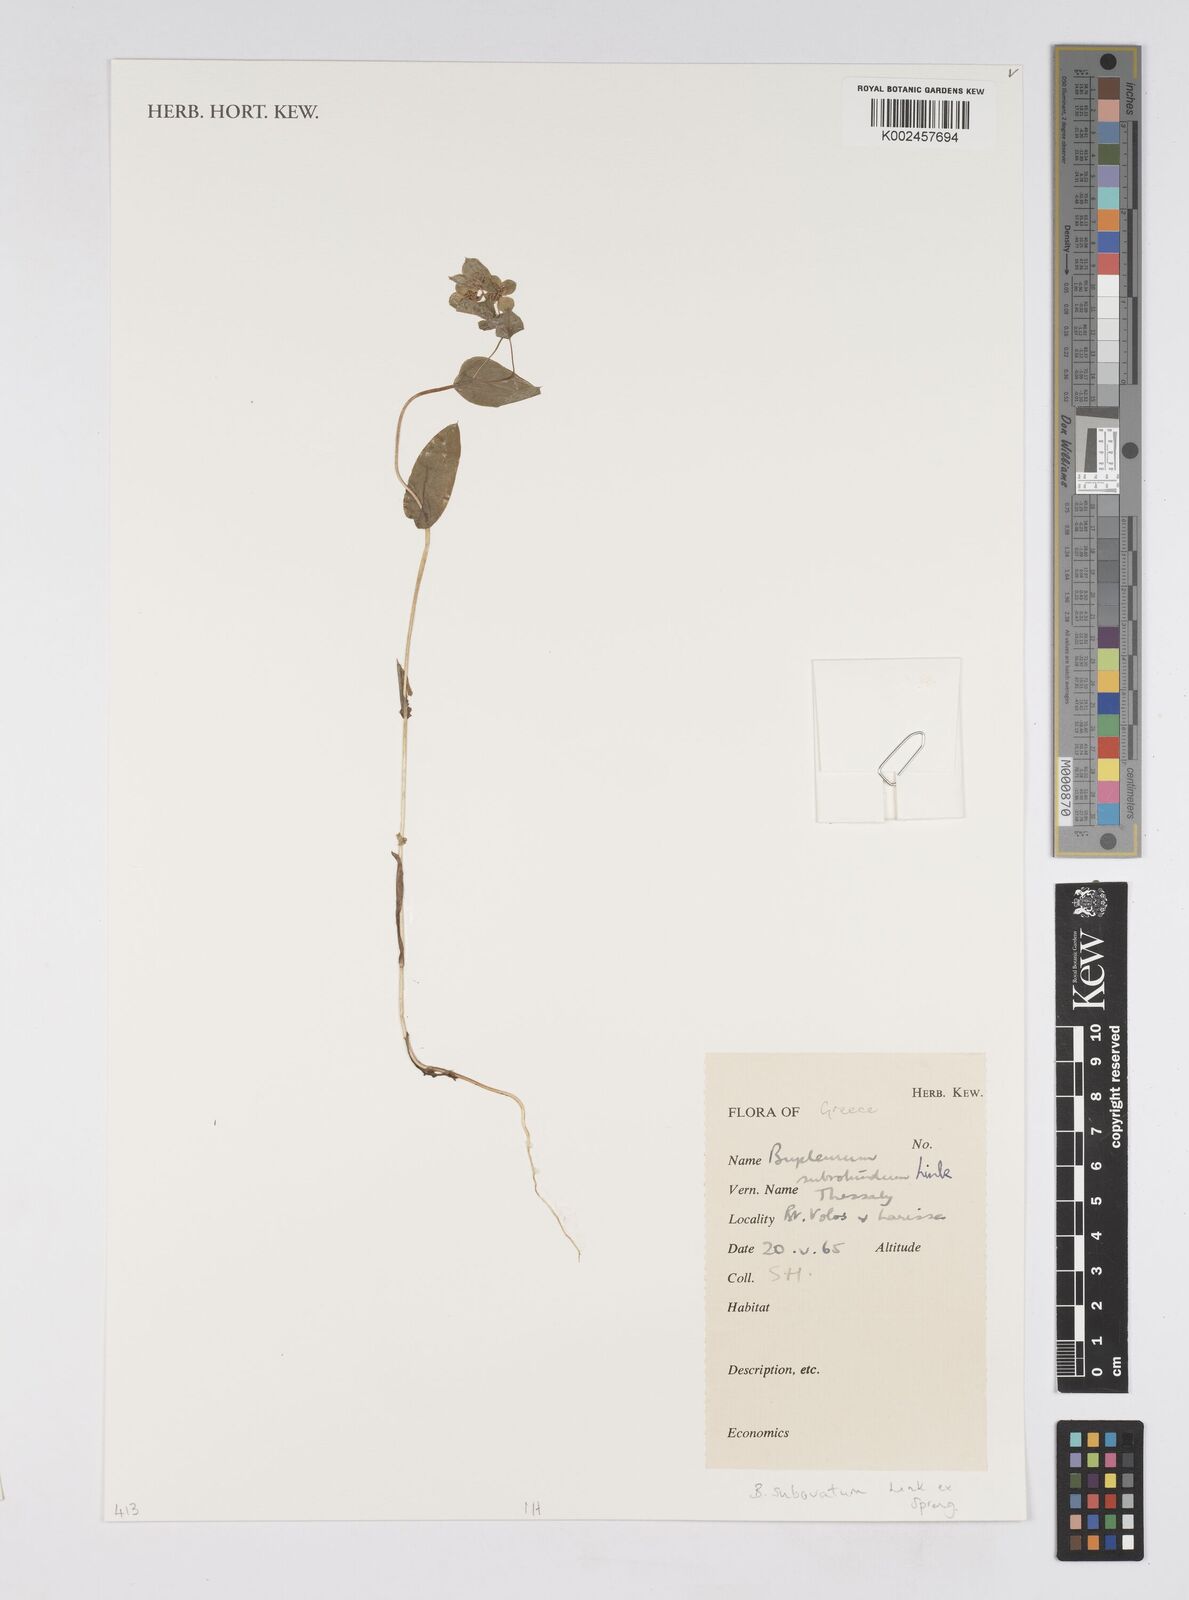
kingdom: Plantae
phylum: Tracheophyta
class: Magnoliopsida
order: Apiales
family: Apiaceae
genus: Bupleurum
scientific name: Bupleurum lancifolium
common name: False thorow-wax
